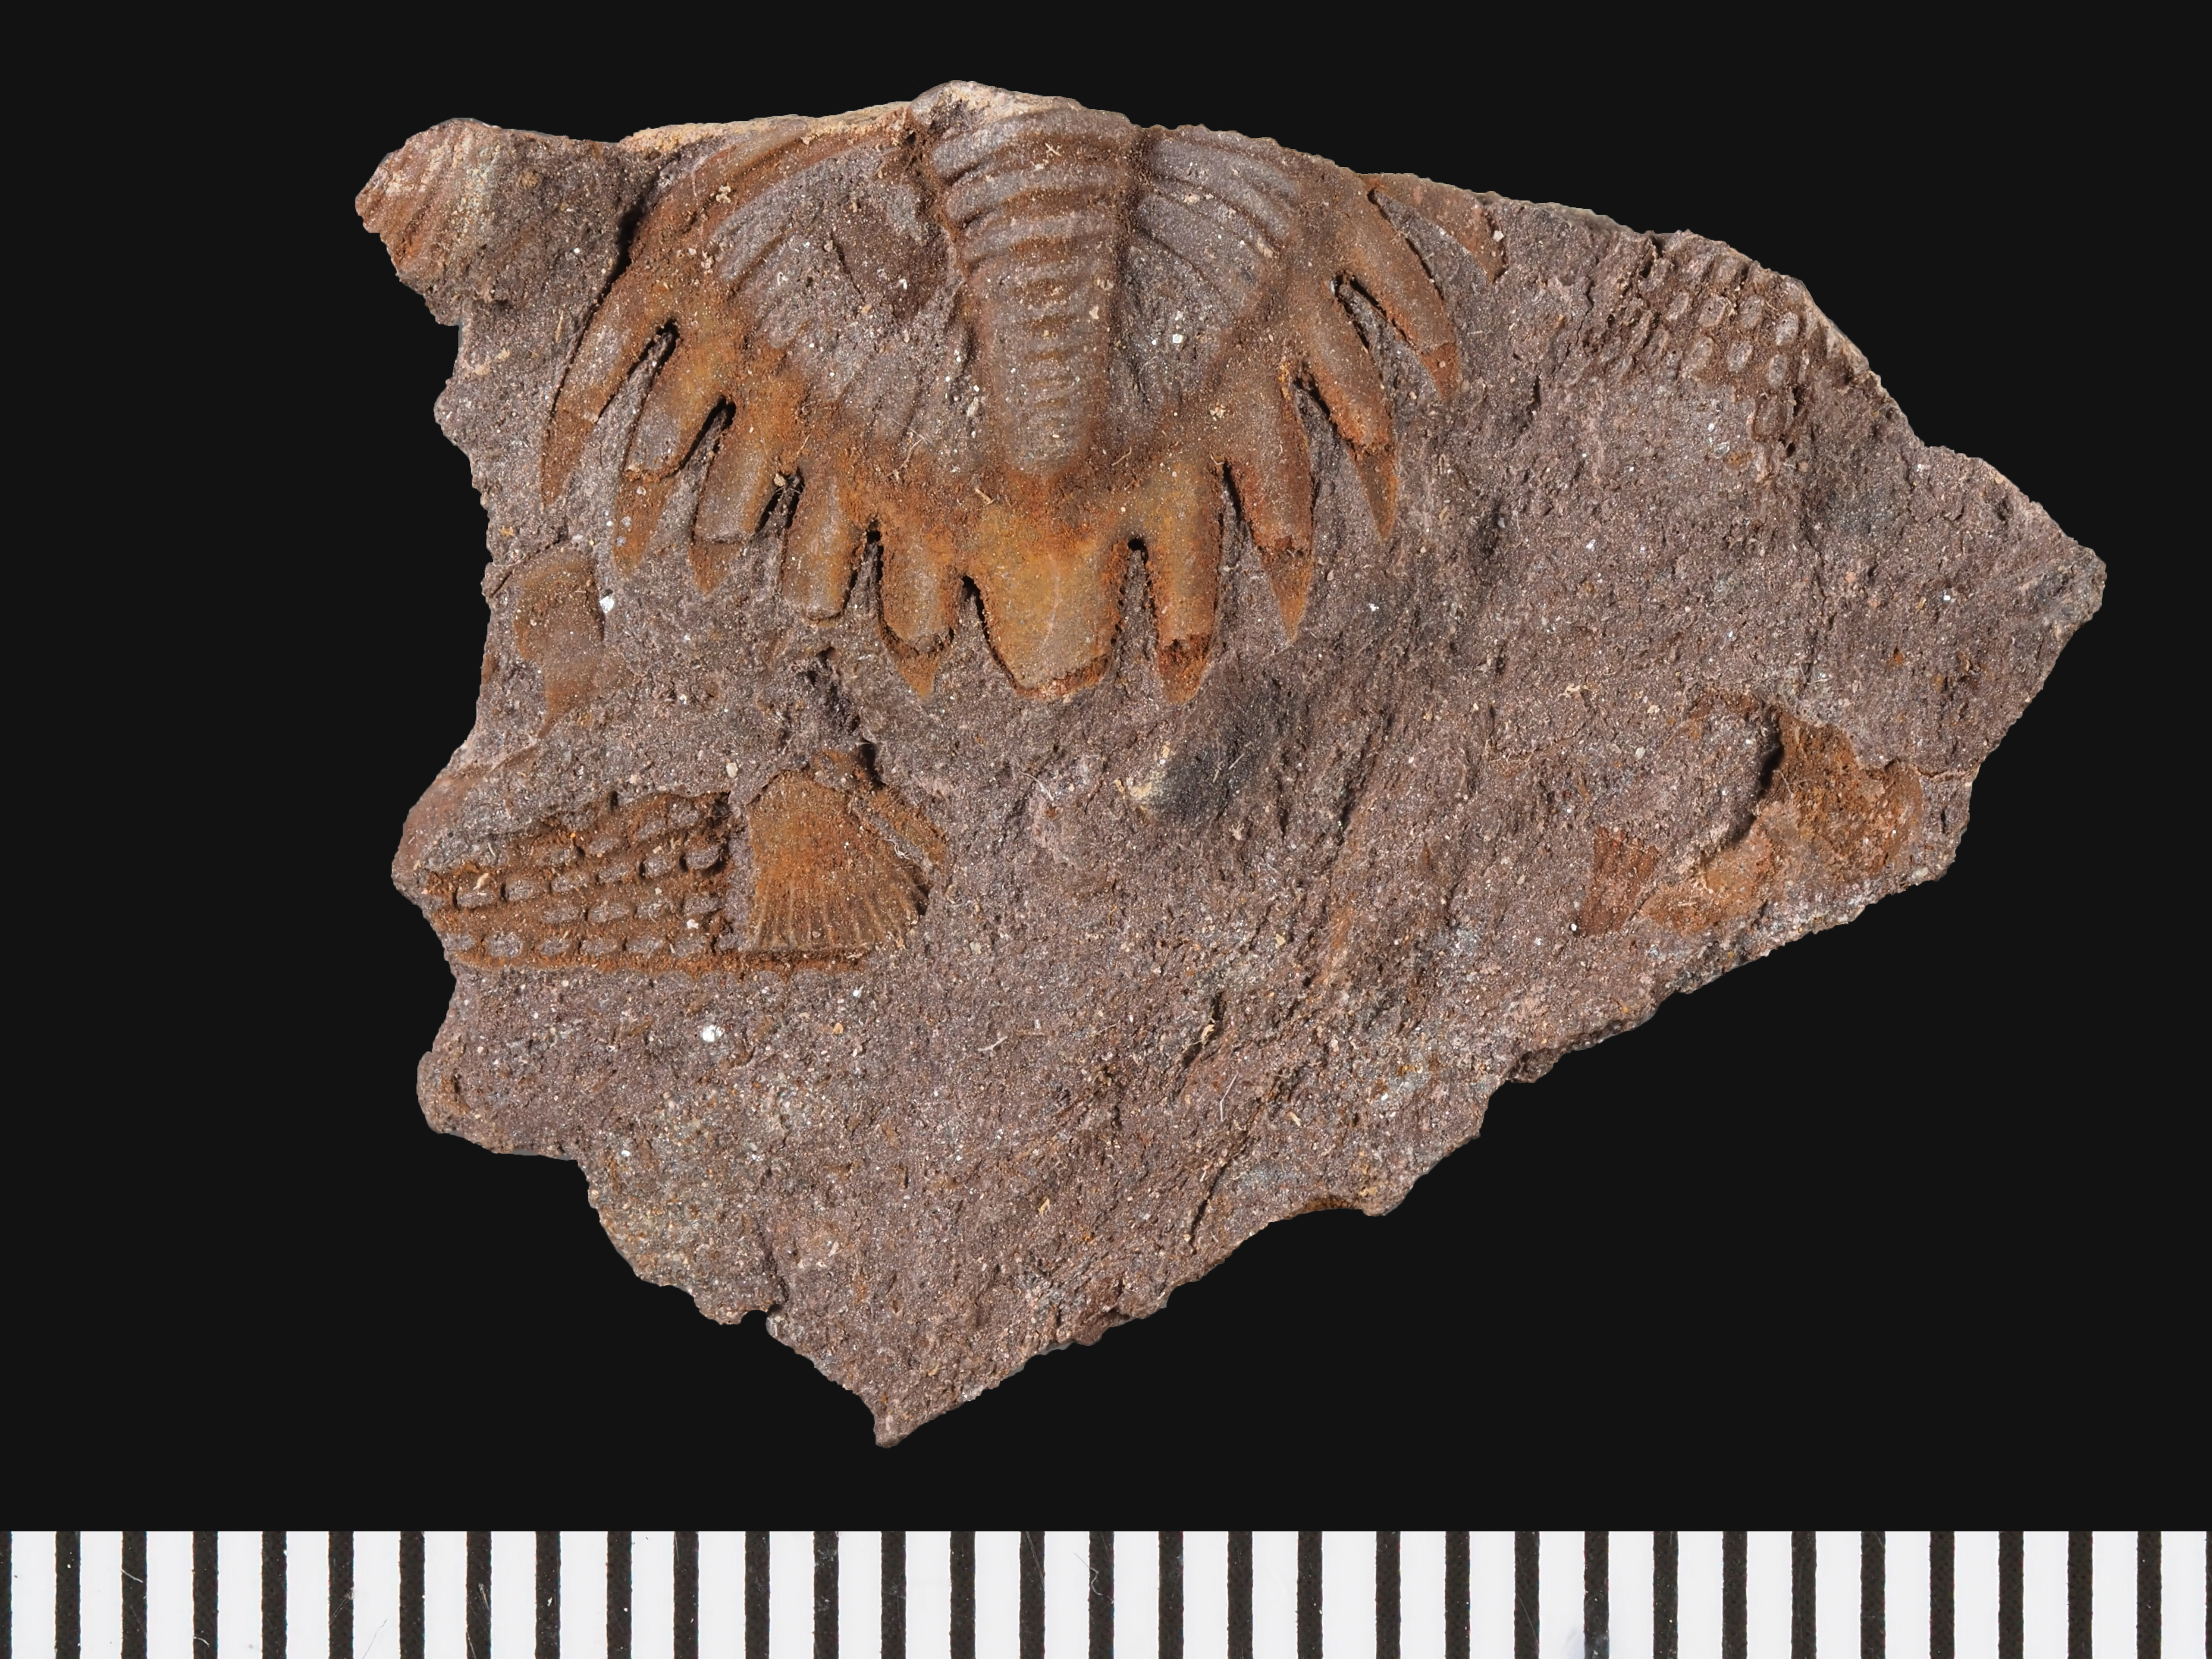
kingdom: Animalia
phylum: Arthropoda
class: Trilobita
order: Phacopida
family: Acastidae
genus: Pilletina
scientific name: Pilletina luxemburgensis
